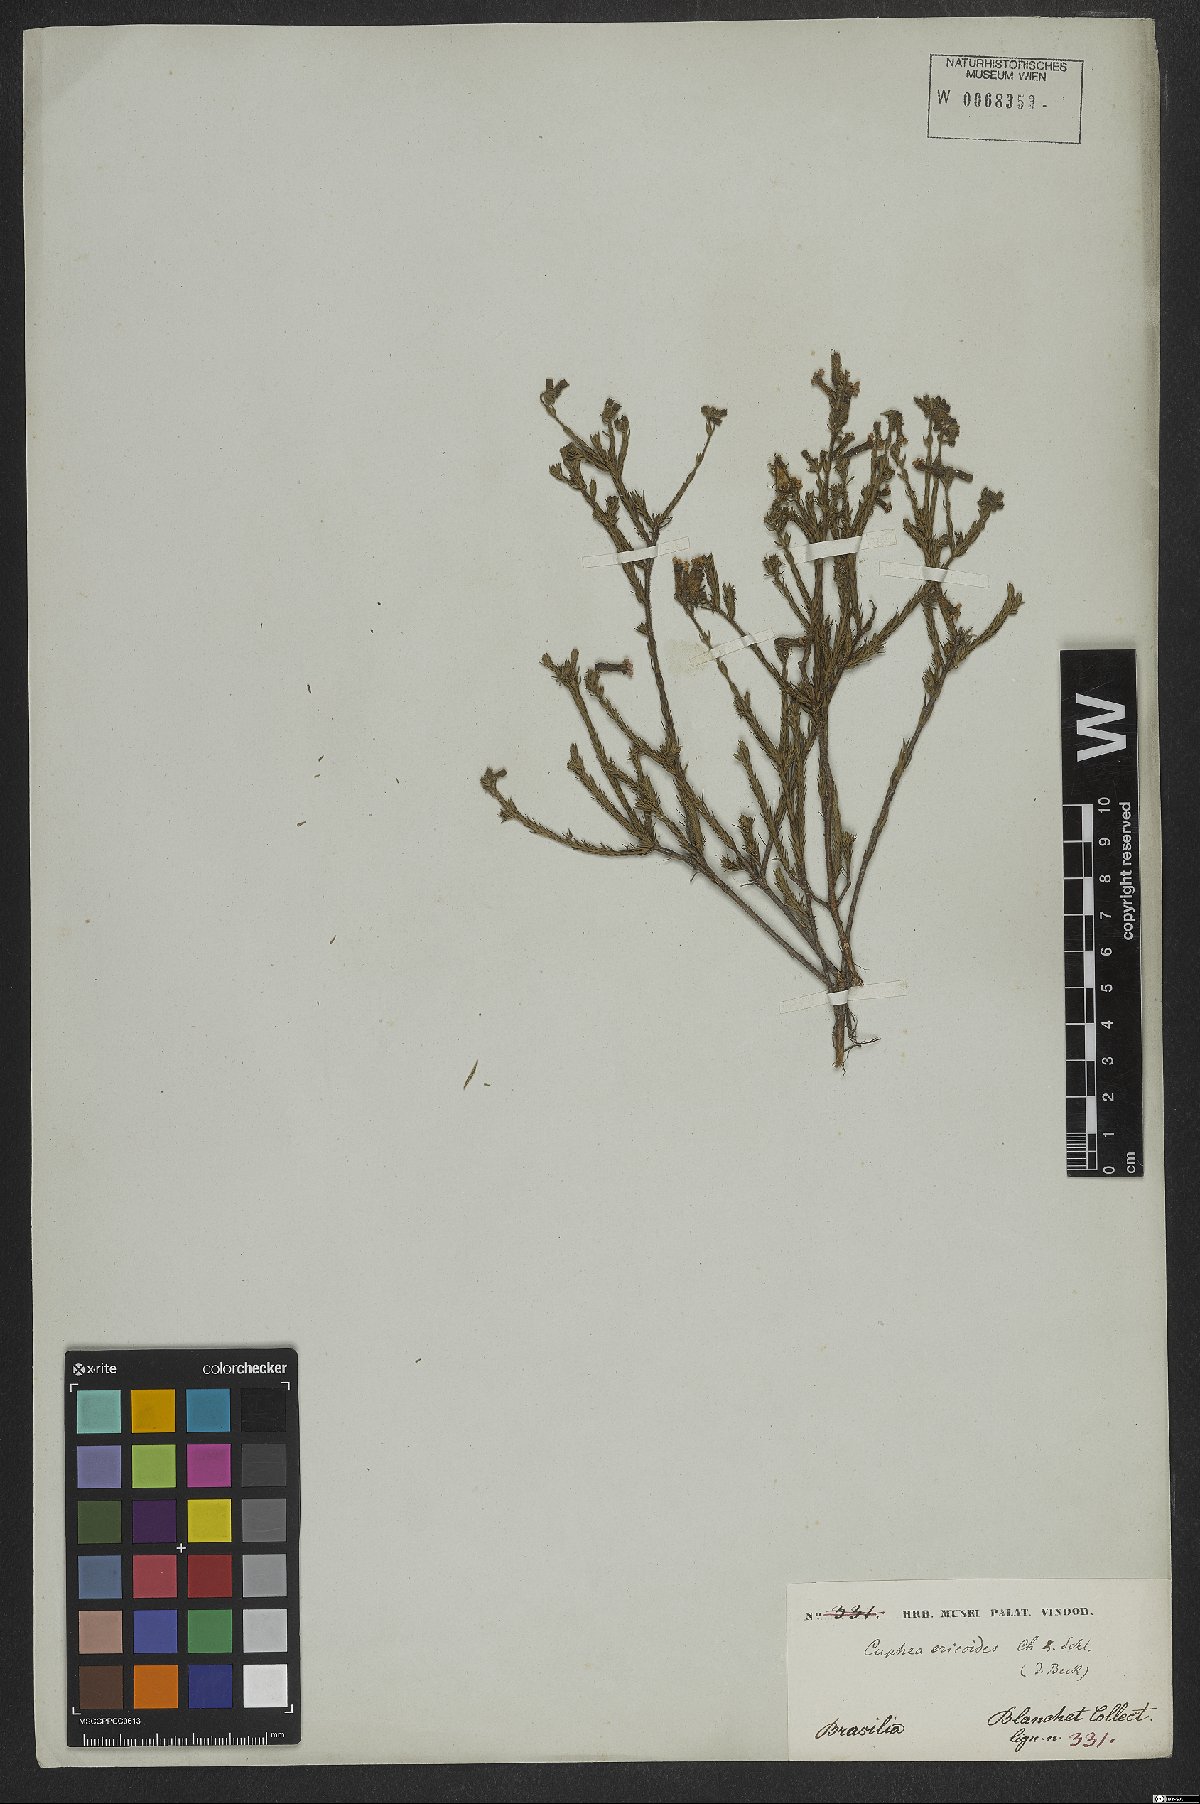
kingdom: Plantae
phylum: Tracheophyta
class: Magnoliopsida
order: Myrtales
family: Lythraceae
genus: Cuphea
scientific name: Cuphea ericoides
